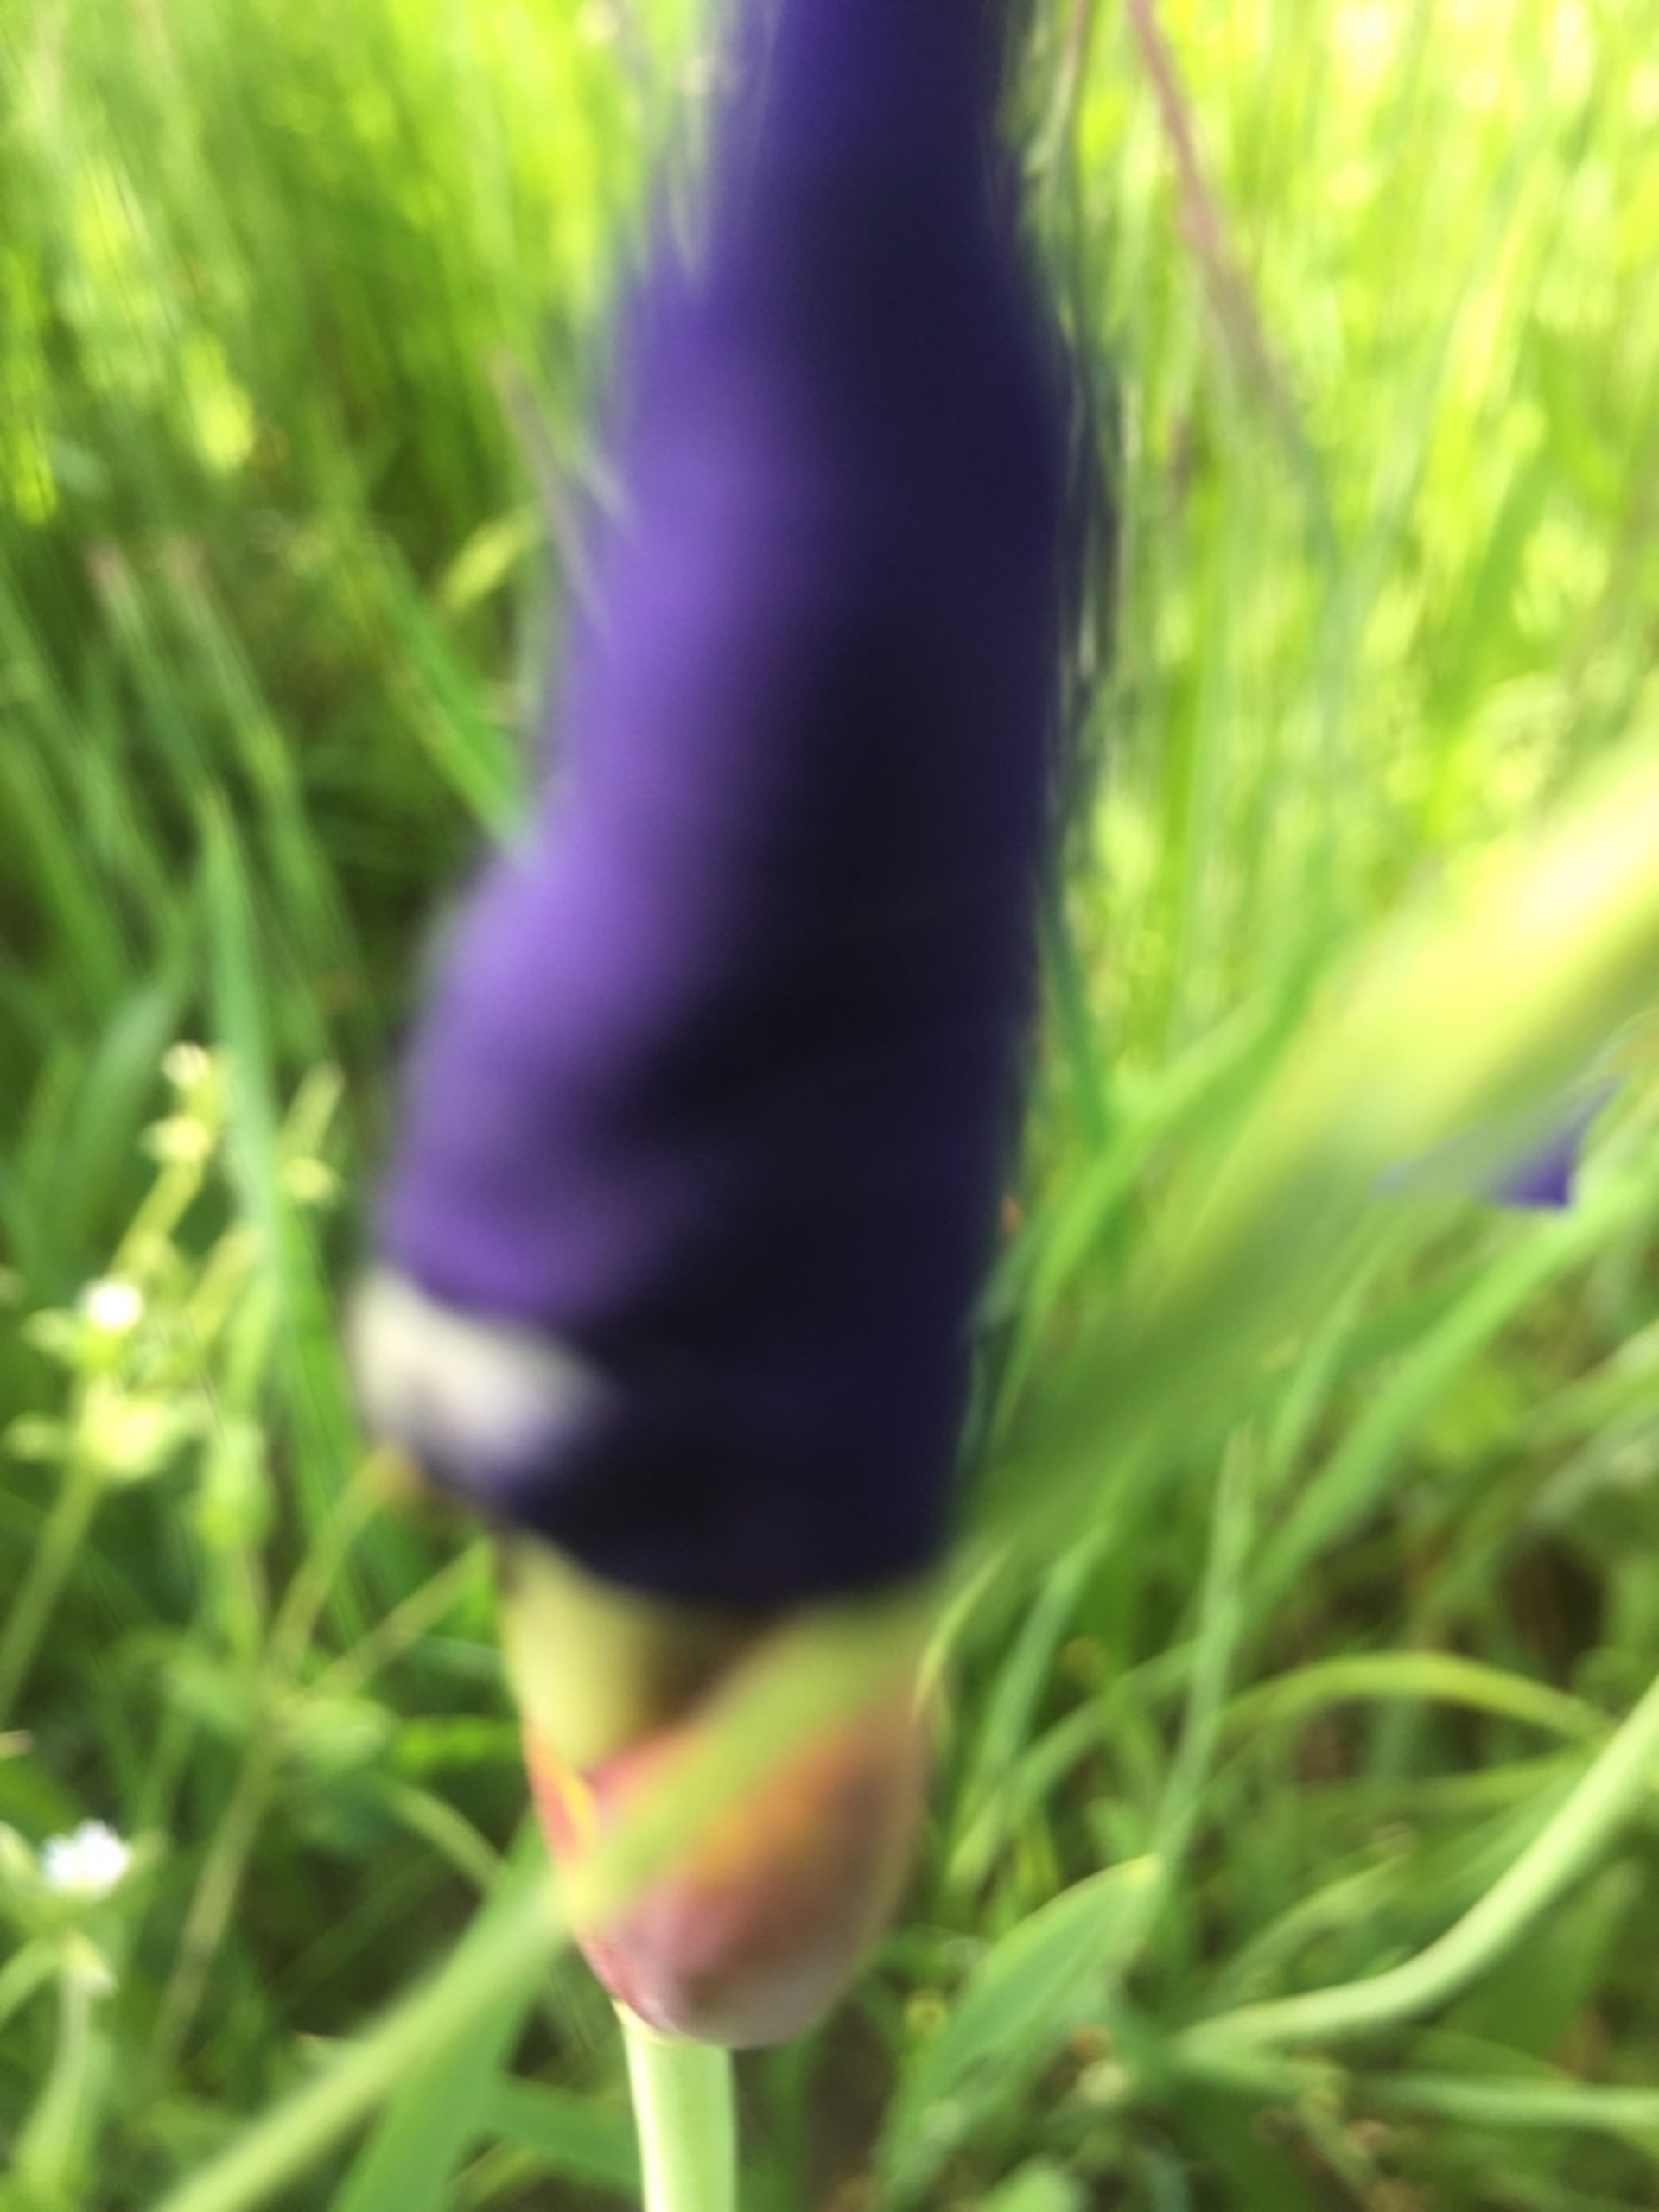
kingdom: Plantae
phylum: Tracheophyta
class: Liliopsida
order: Asparagales
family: Iridaceae
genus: Iris
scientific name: Iris sanguinea
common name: Viol-iris
